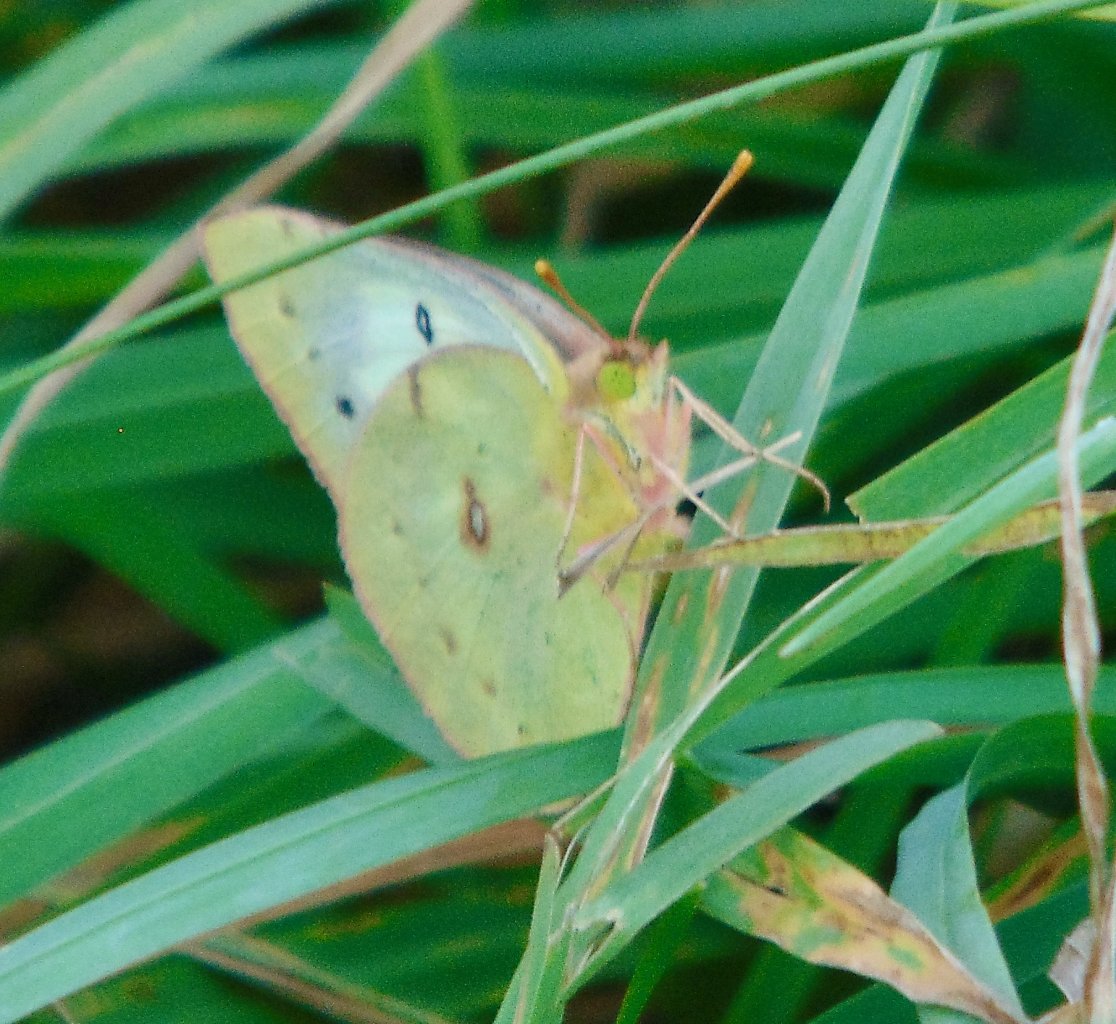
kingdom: Animalia
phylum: Arthropoda
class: Insecta
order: Lepidoptera
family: Pieridae
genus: Colias
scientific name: Colias philodice
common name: Clouded Sulphur
